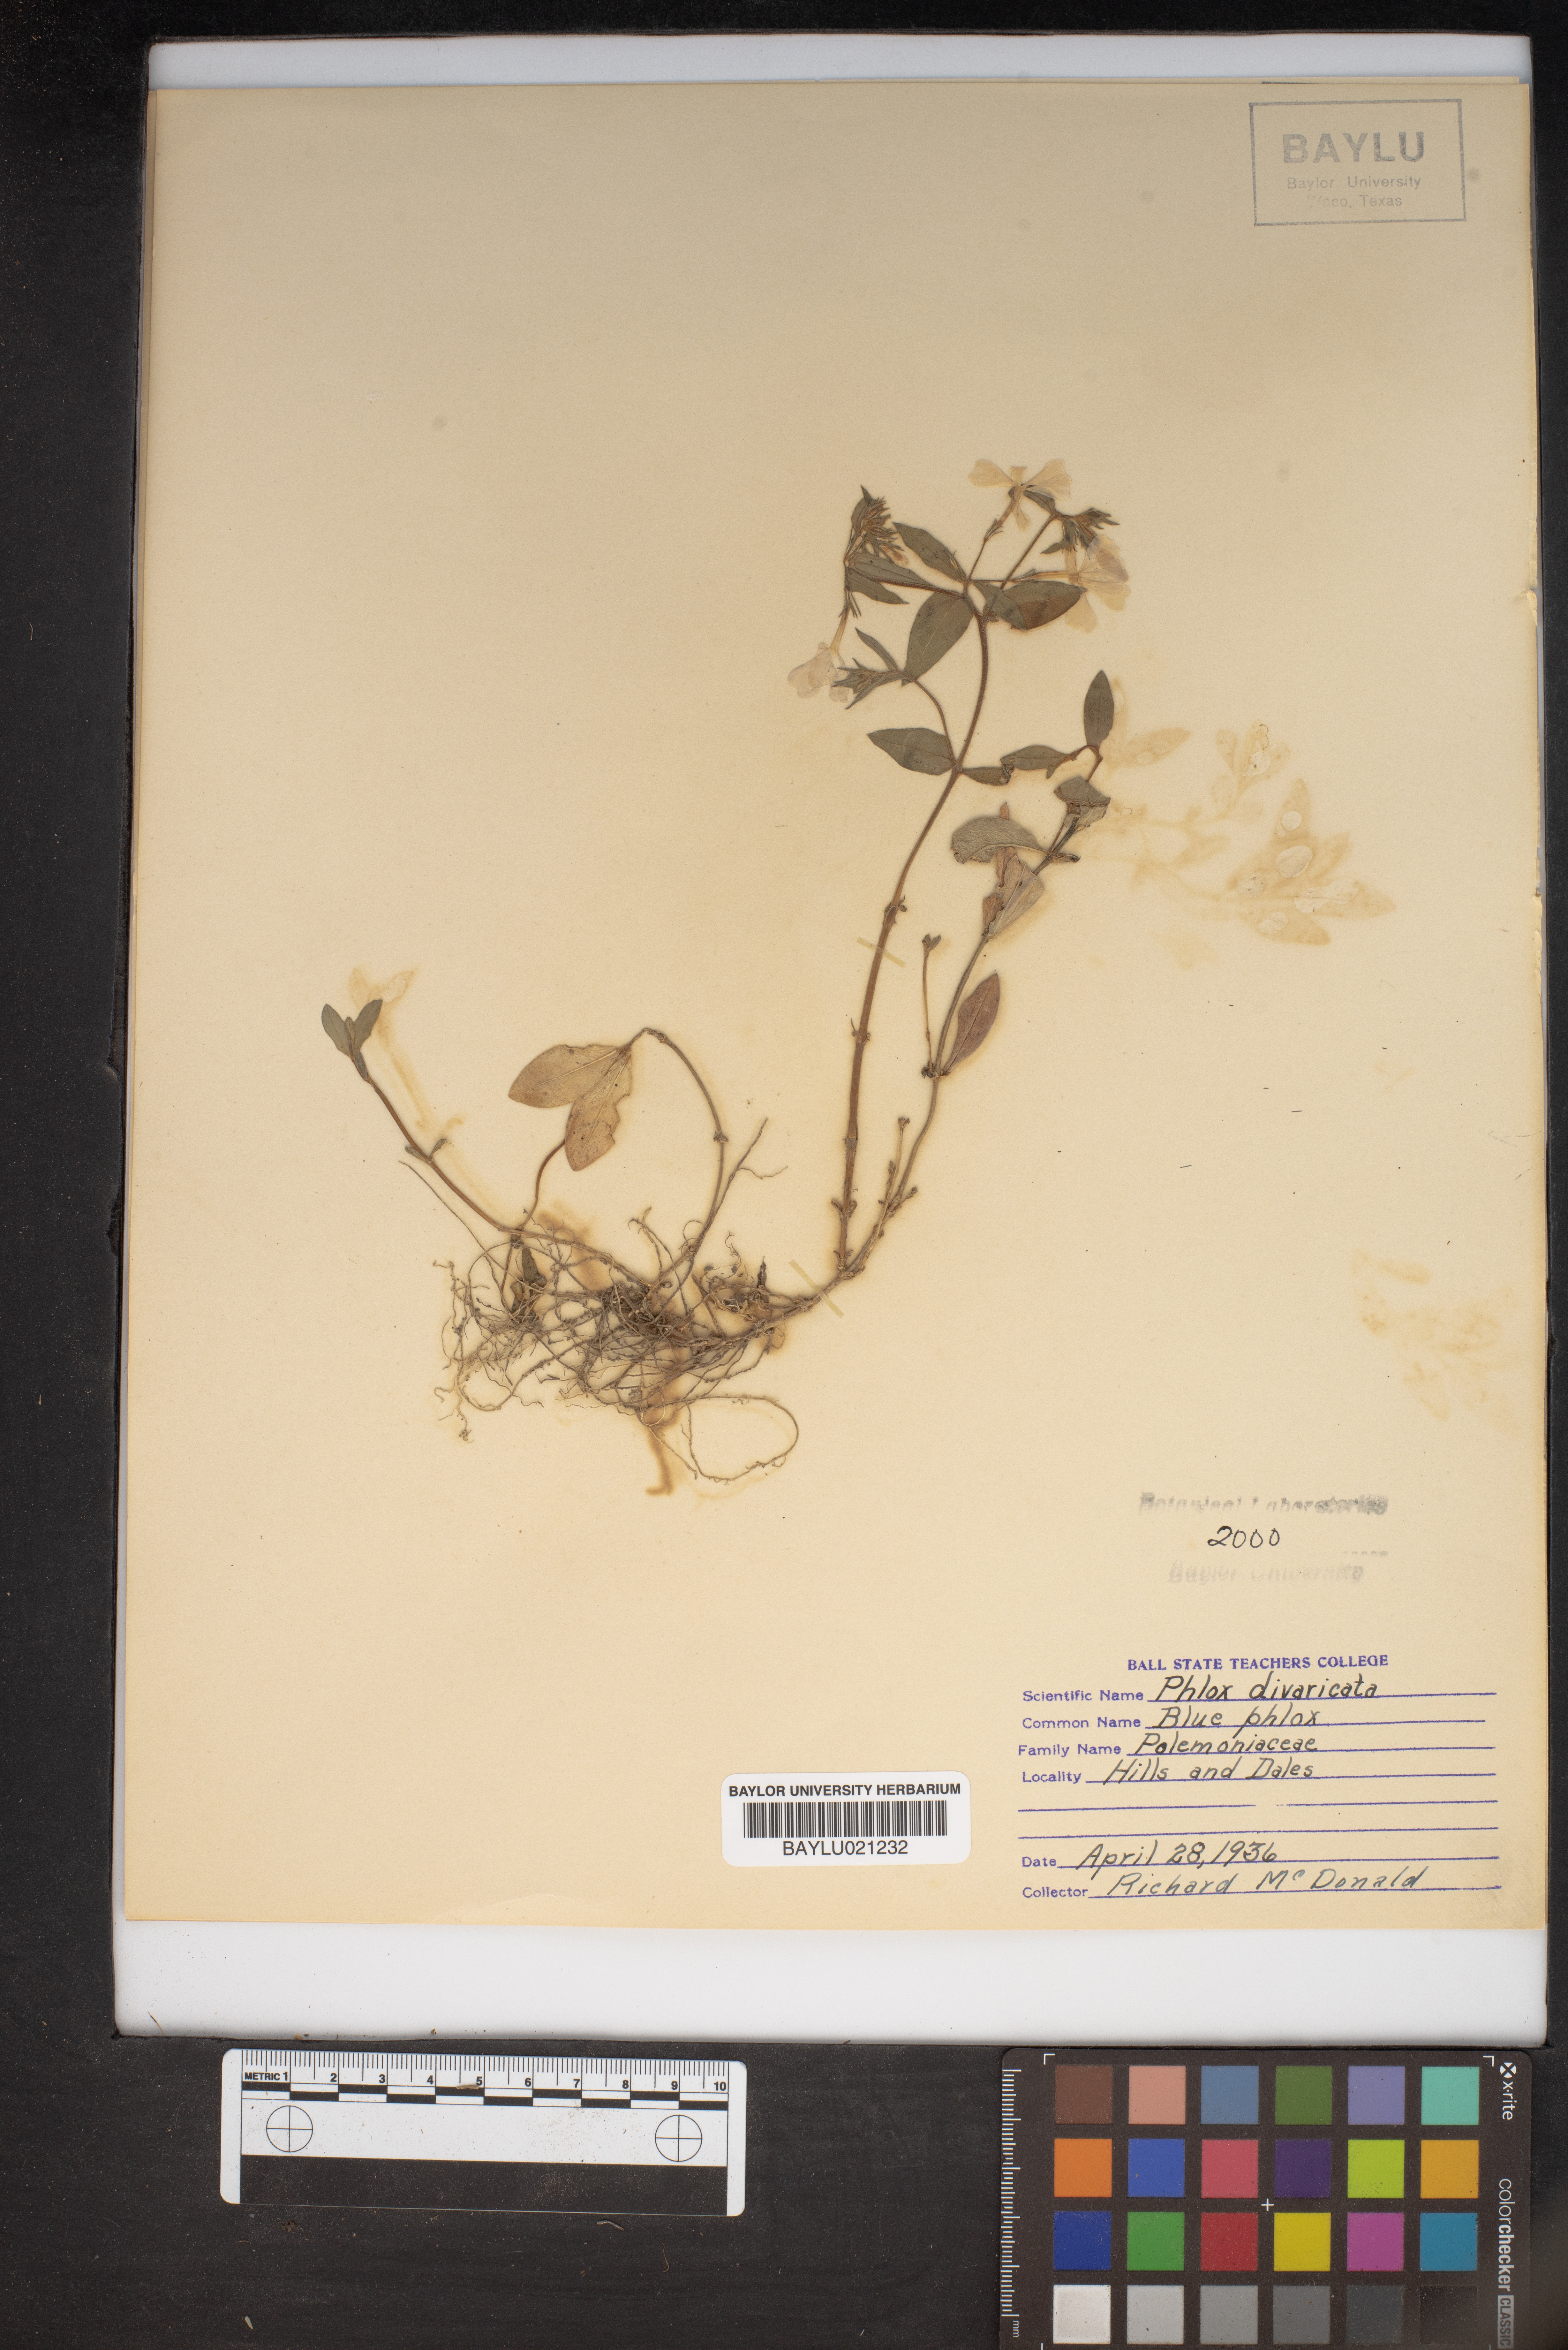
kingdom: Plantae
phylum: Tracheophyta
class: Magnoliopsida
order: Ericales
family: Polemoniaceae
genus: Phlox
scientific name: Phlox divaricata
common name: Blue phlox
